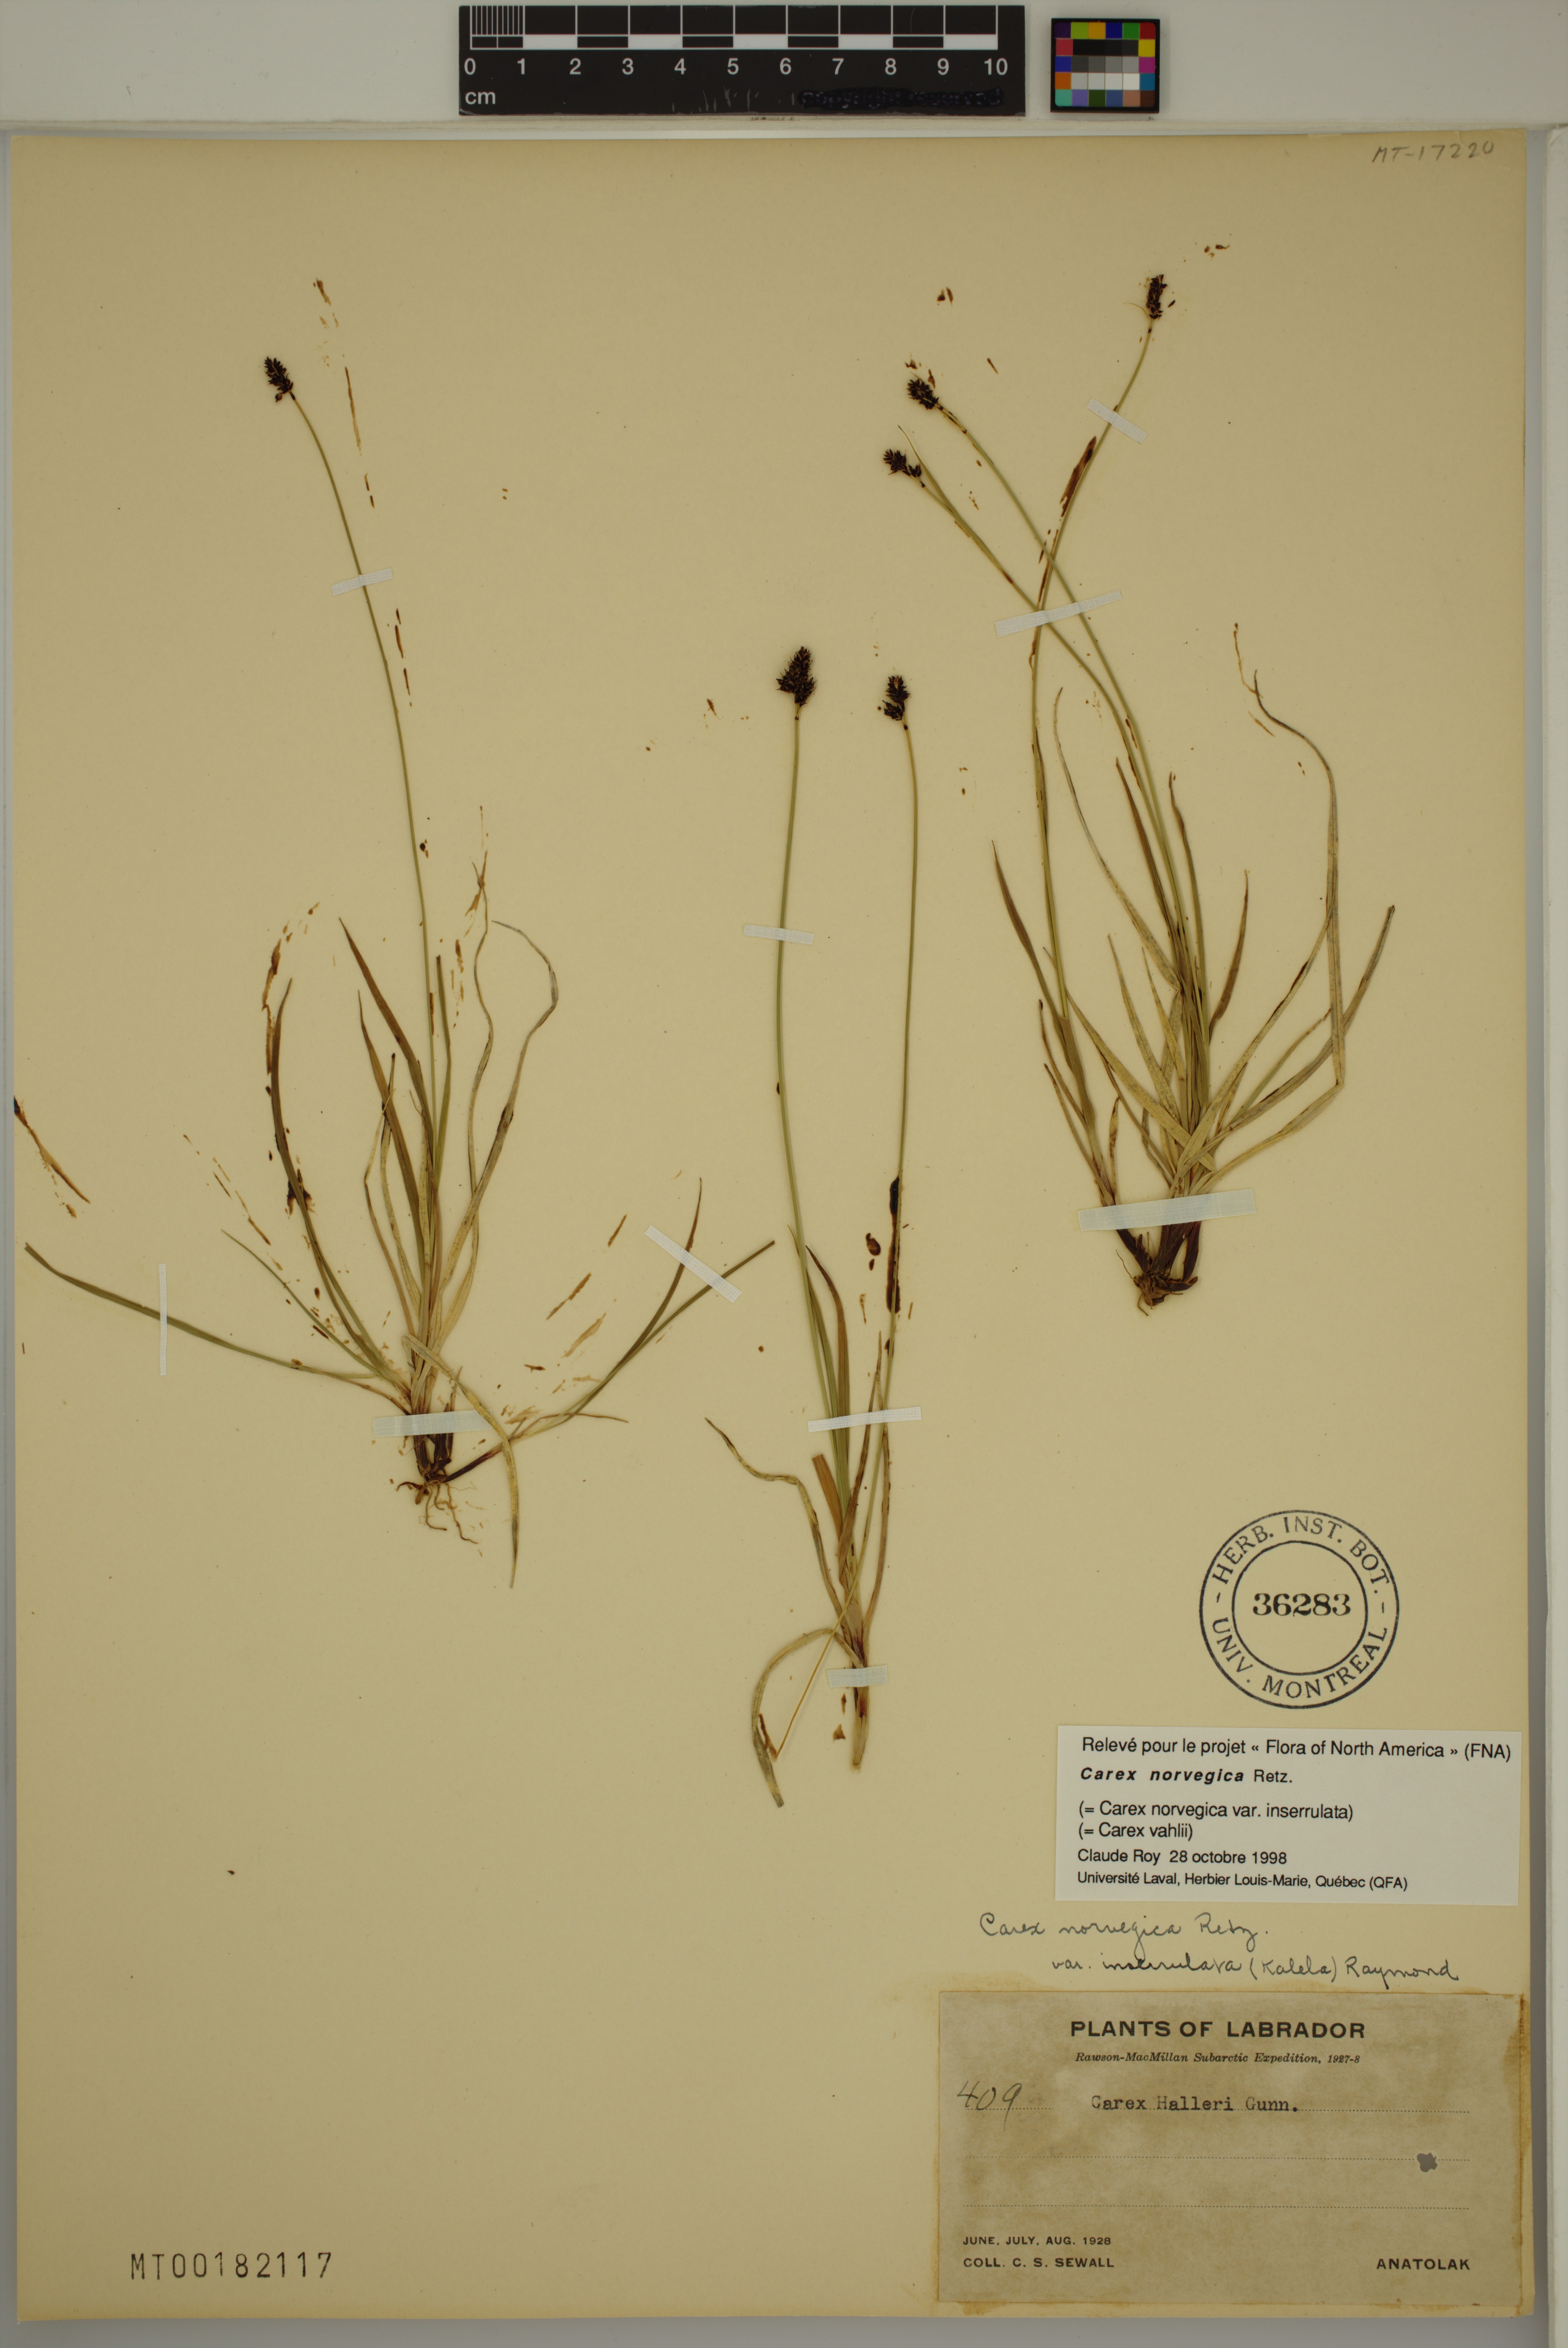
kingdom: Plantae
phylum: Tracheophyta
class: Liliopsida
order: Poales
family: Cyperaceae
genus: Carex
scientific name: Carex norvegica
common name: Close-headed alpine-sedge
